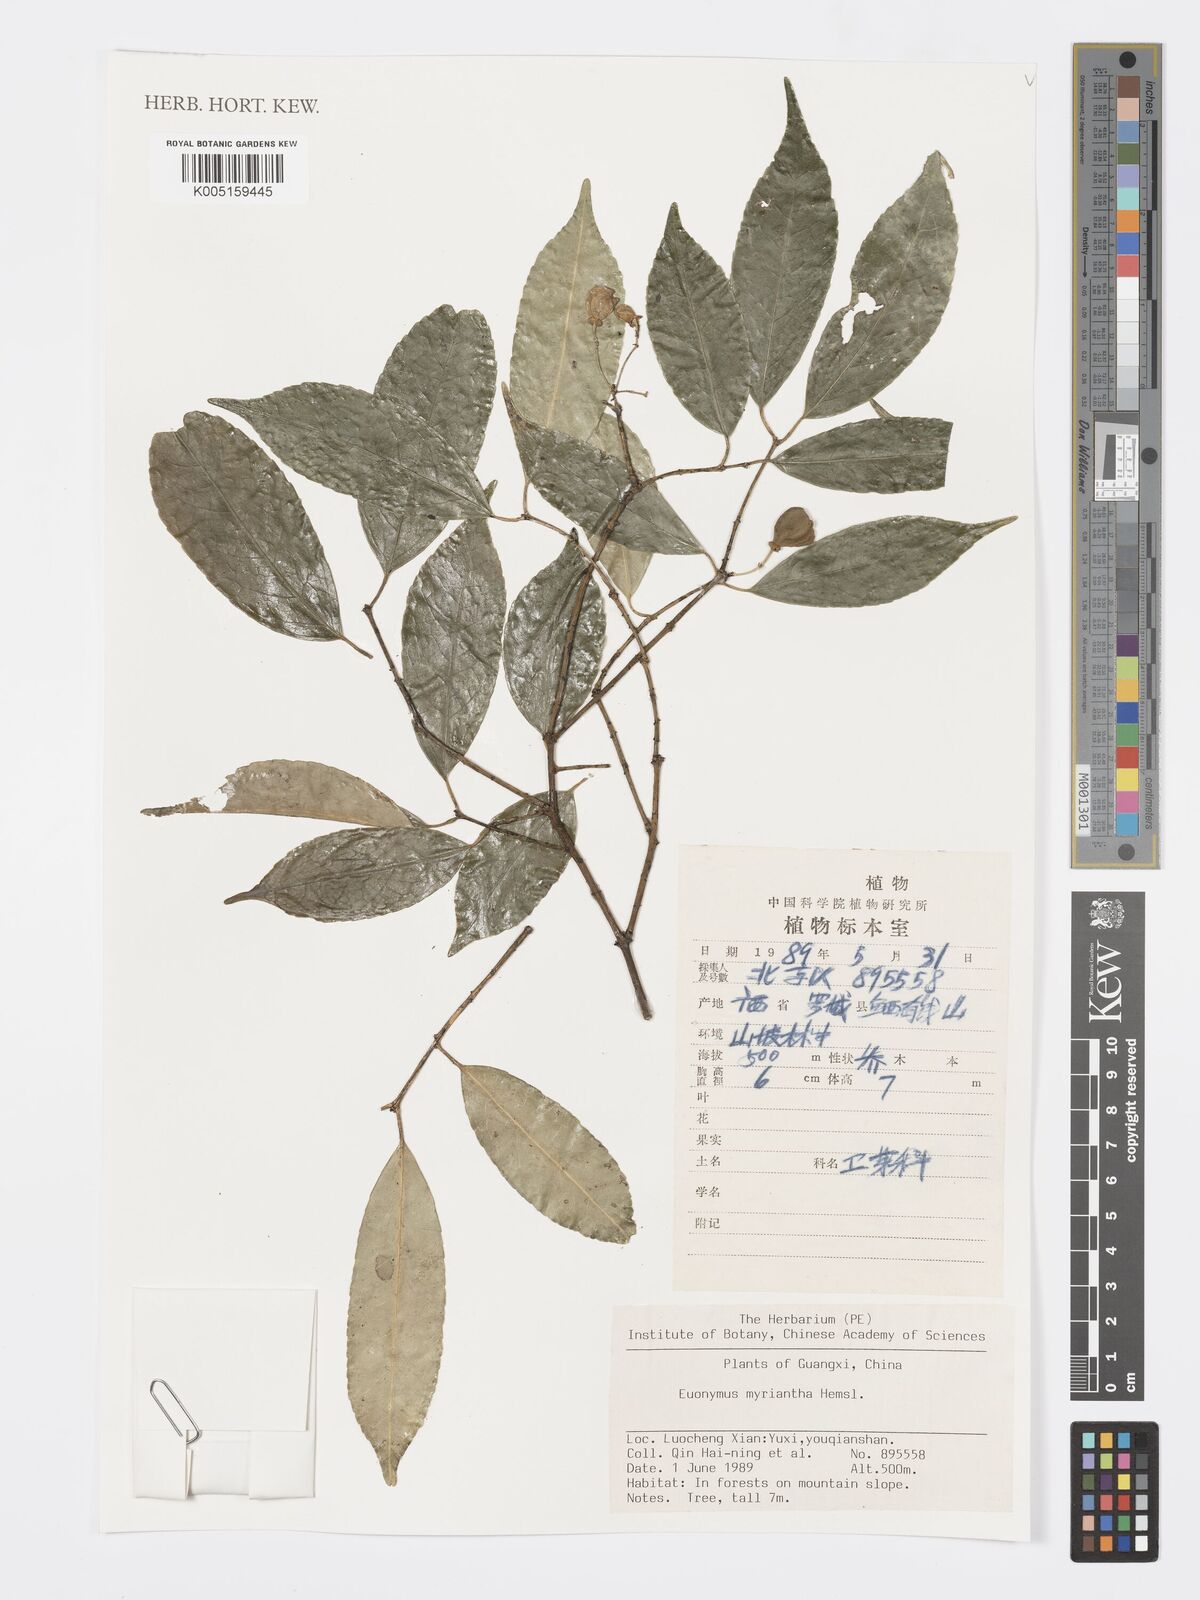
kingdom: Plantae
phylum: Tracheophyta
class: Magnoliopsida
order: Celastrales
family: Celastraceae
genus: Euonymus
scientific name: Euonymus myrianthus
